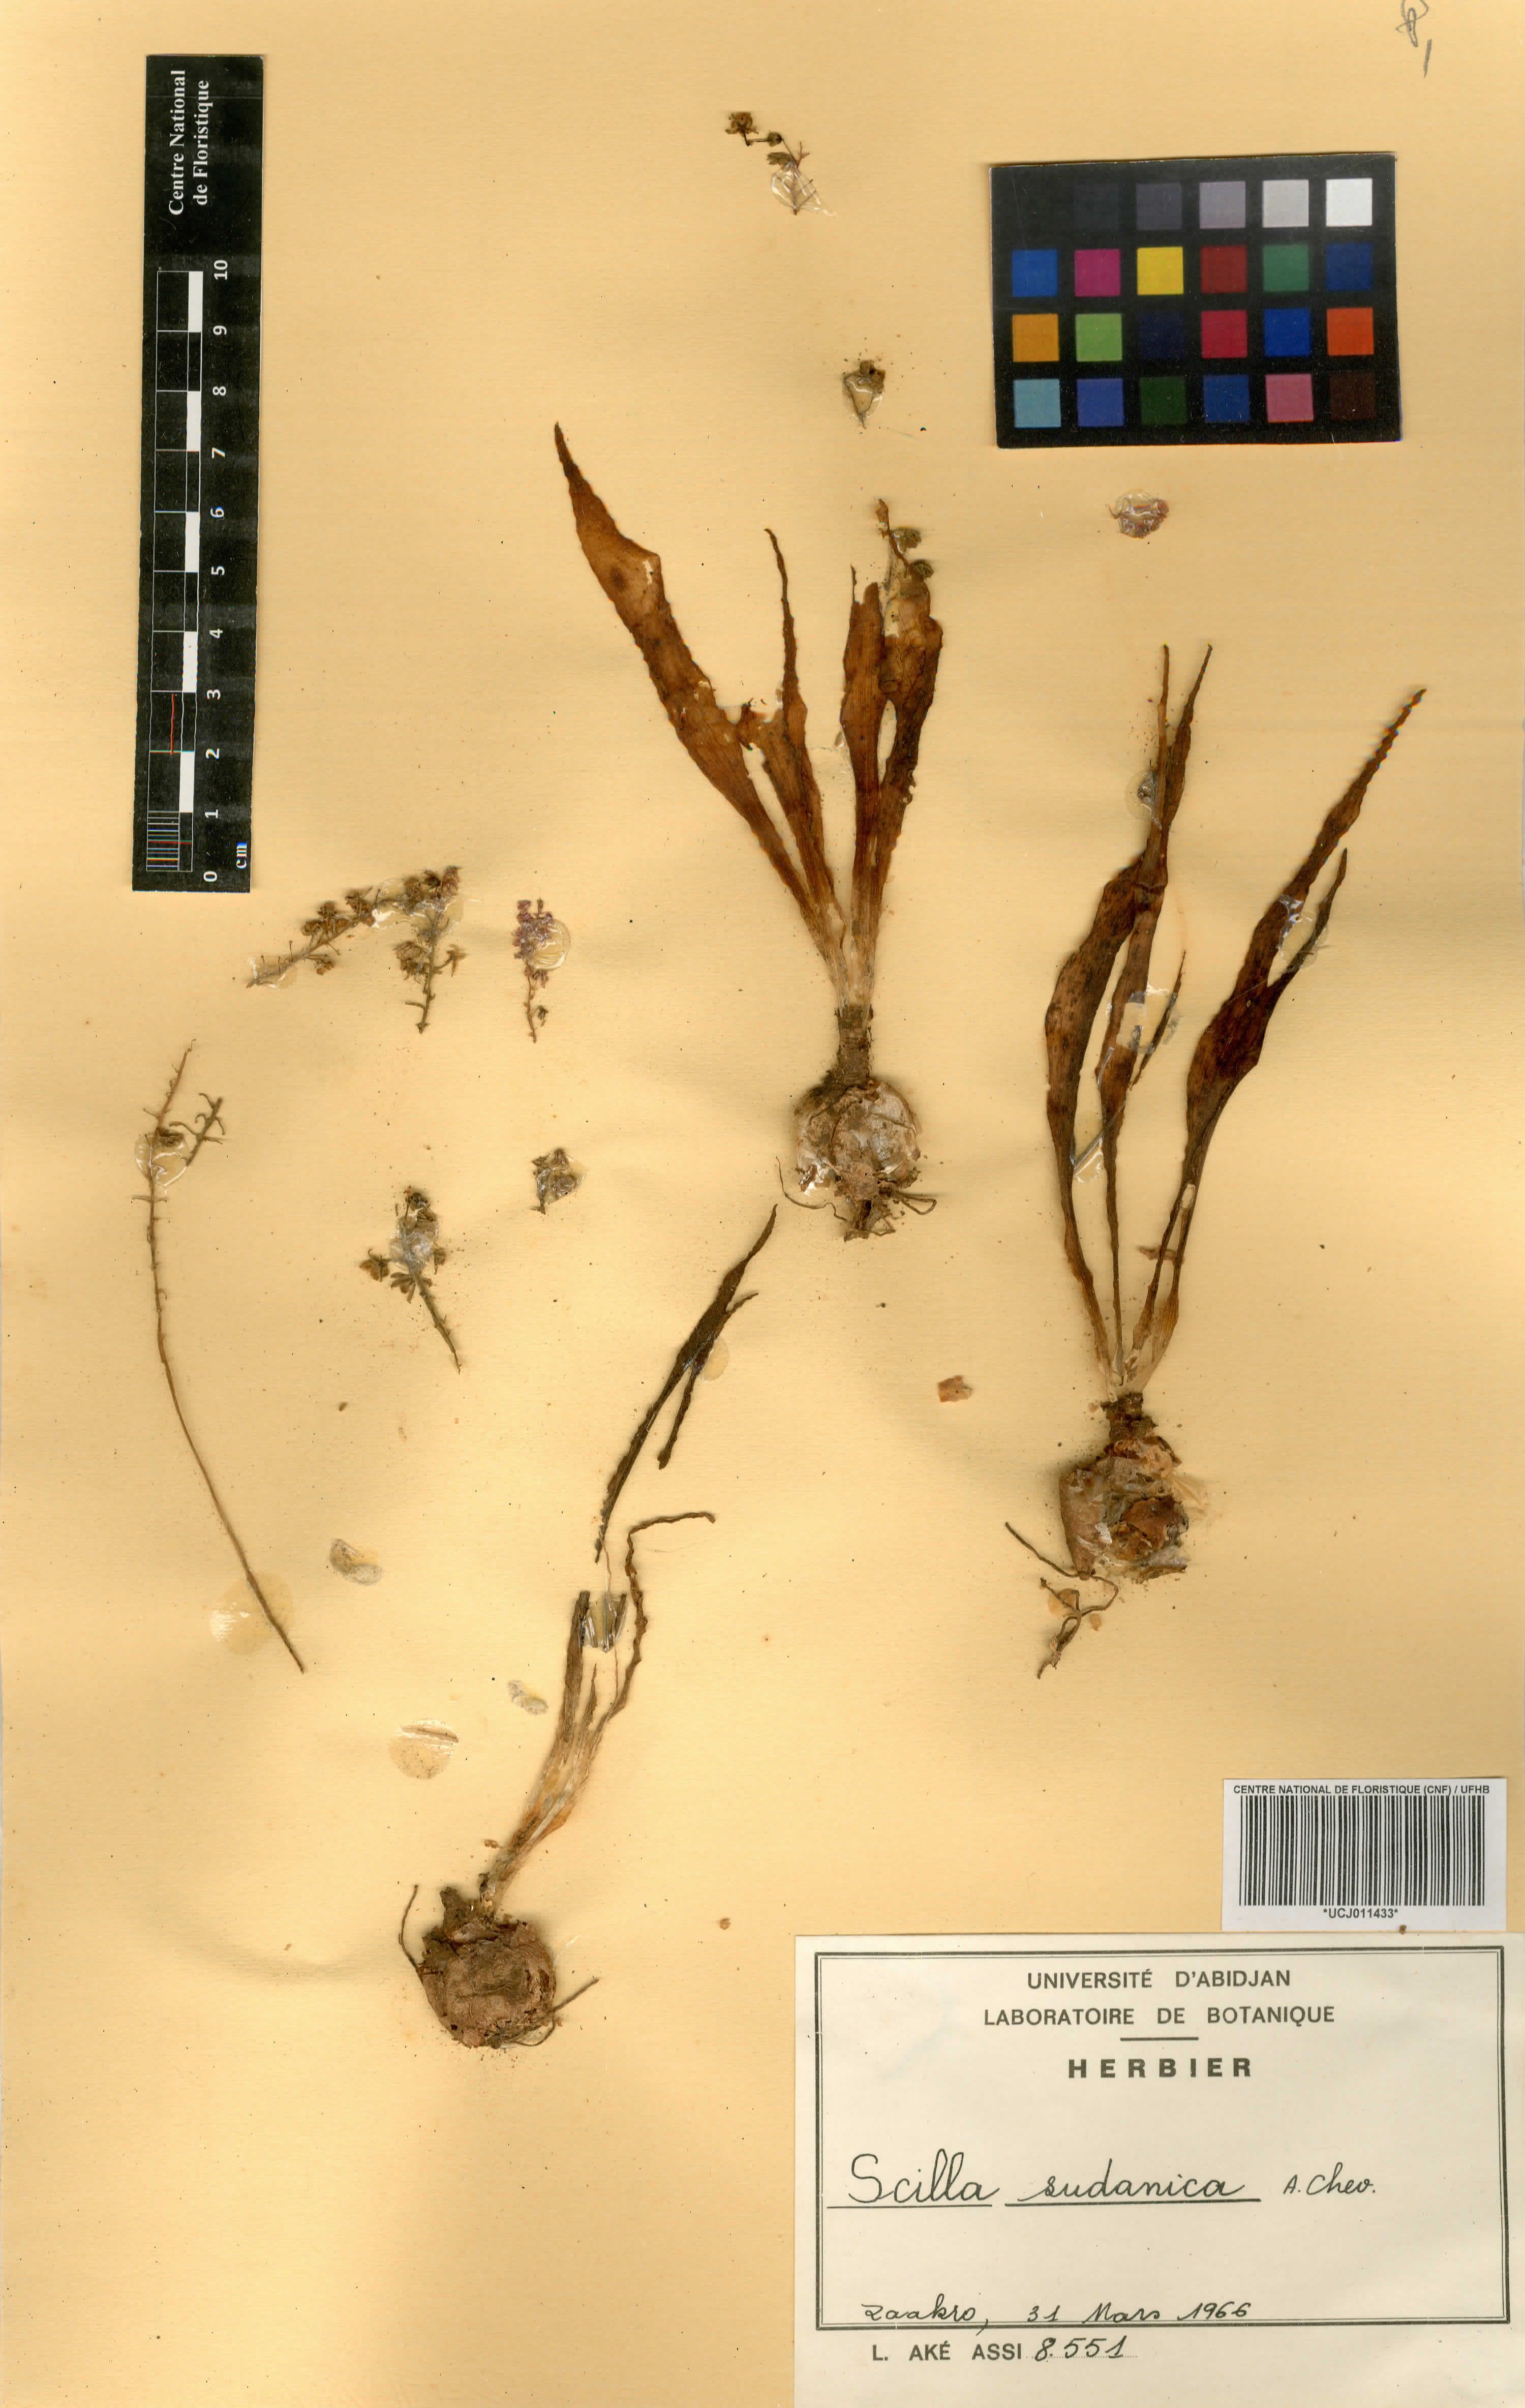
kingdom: Plantae
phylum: Tracheophyta
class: Liliopsida
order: Asparagales
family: Asparagaceae
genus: Ledebouria
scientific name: Ledebouria sudanica
